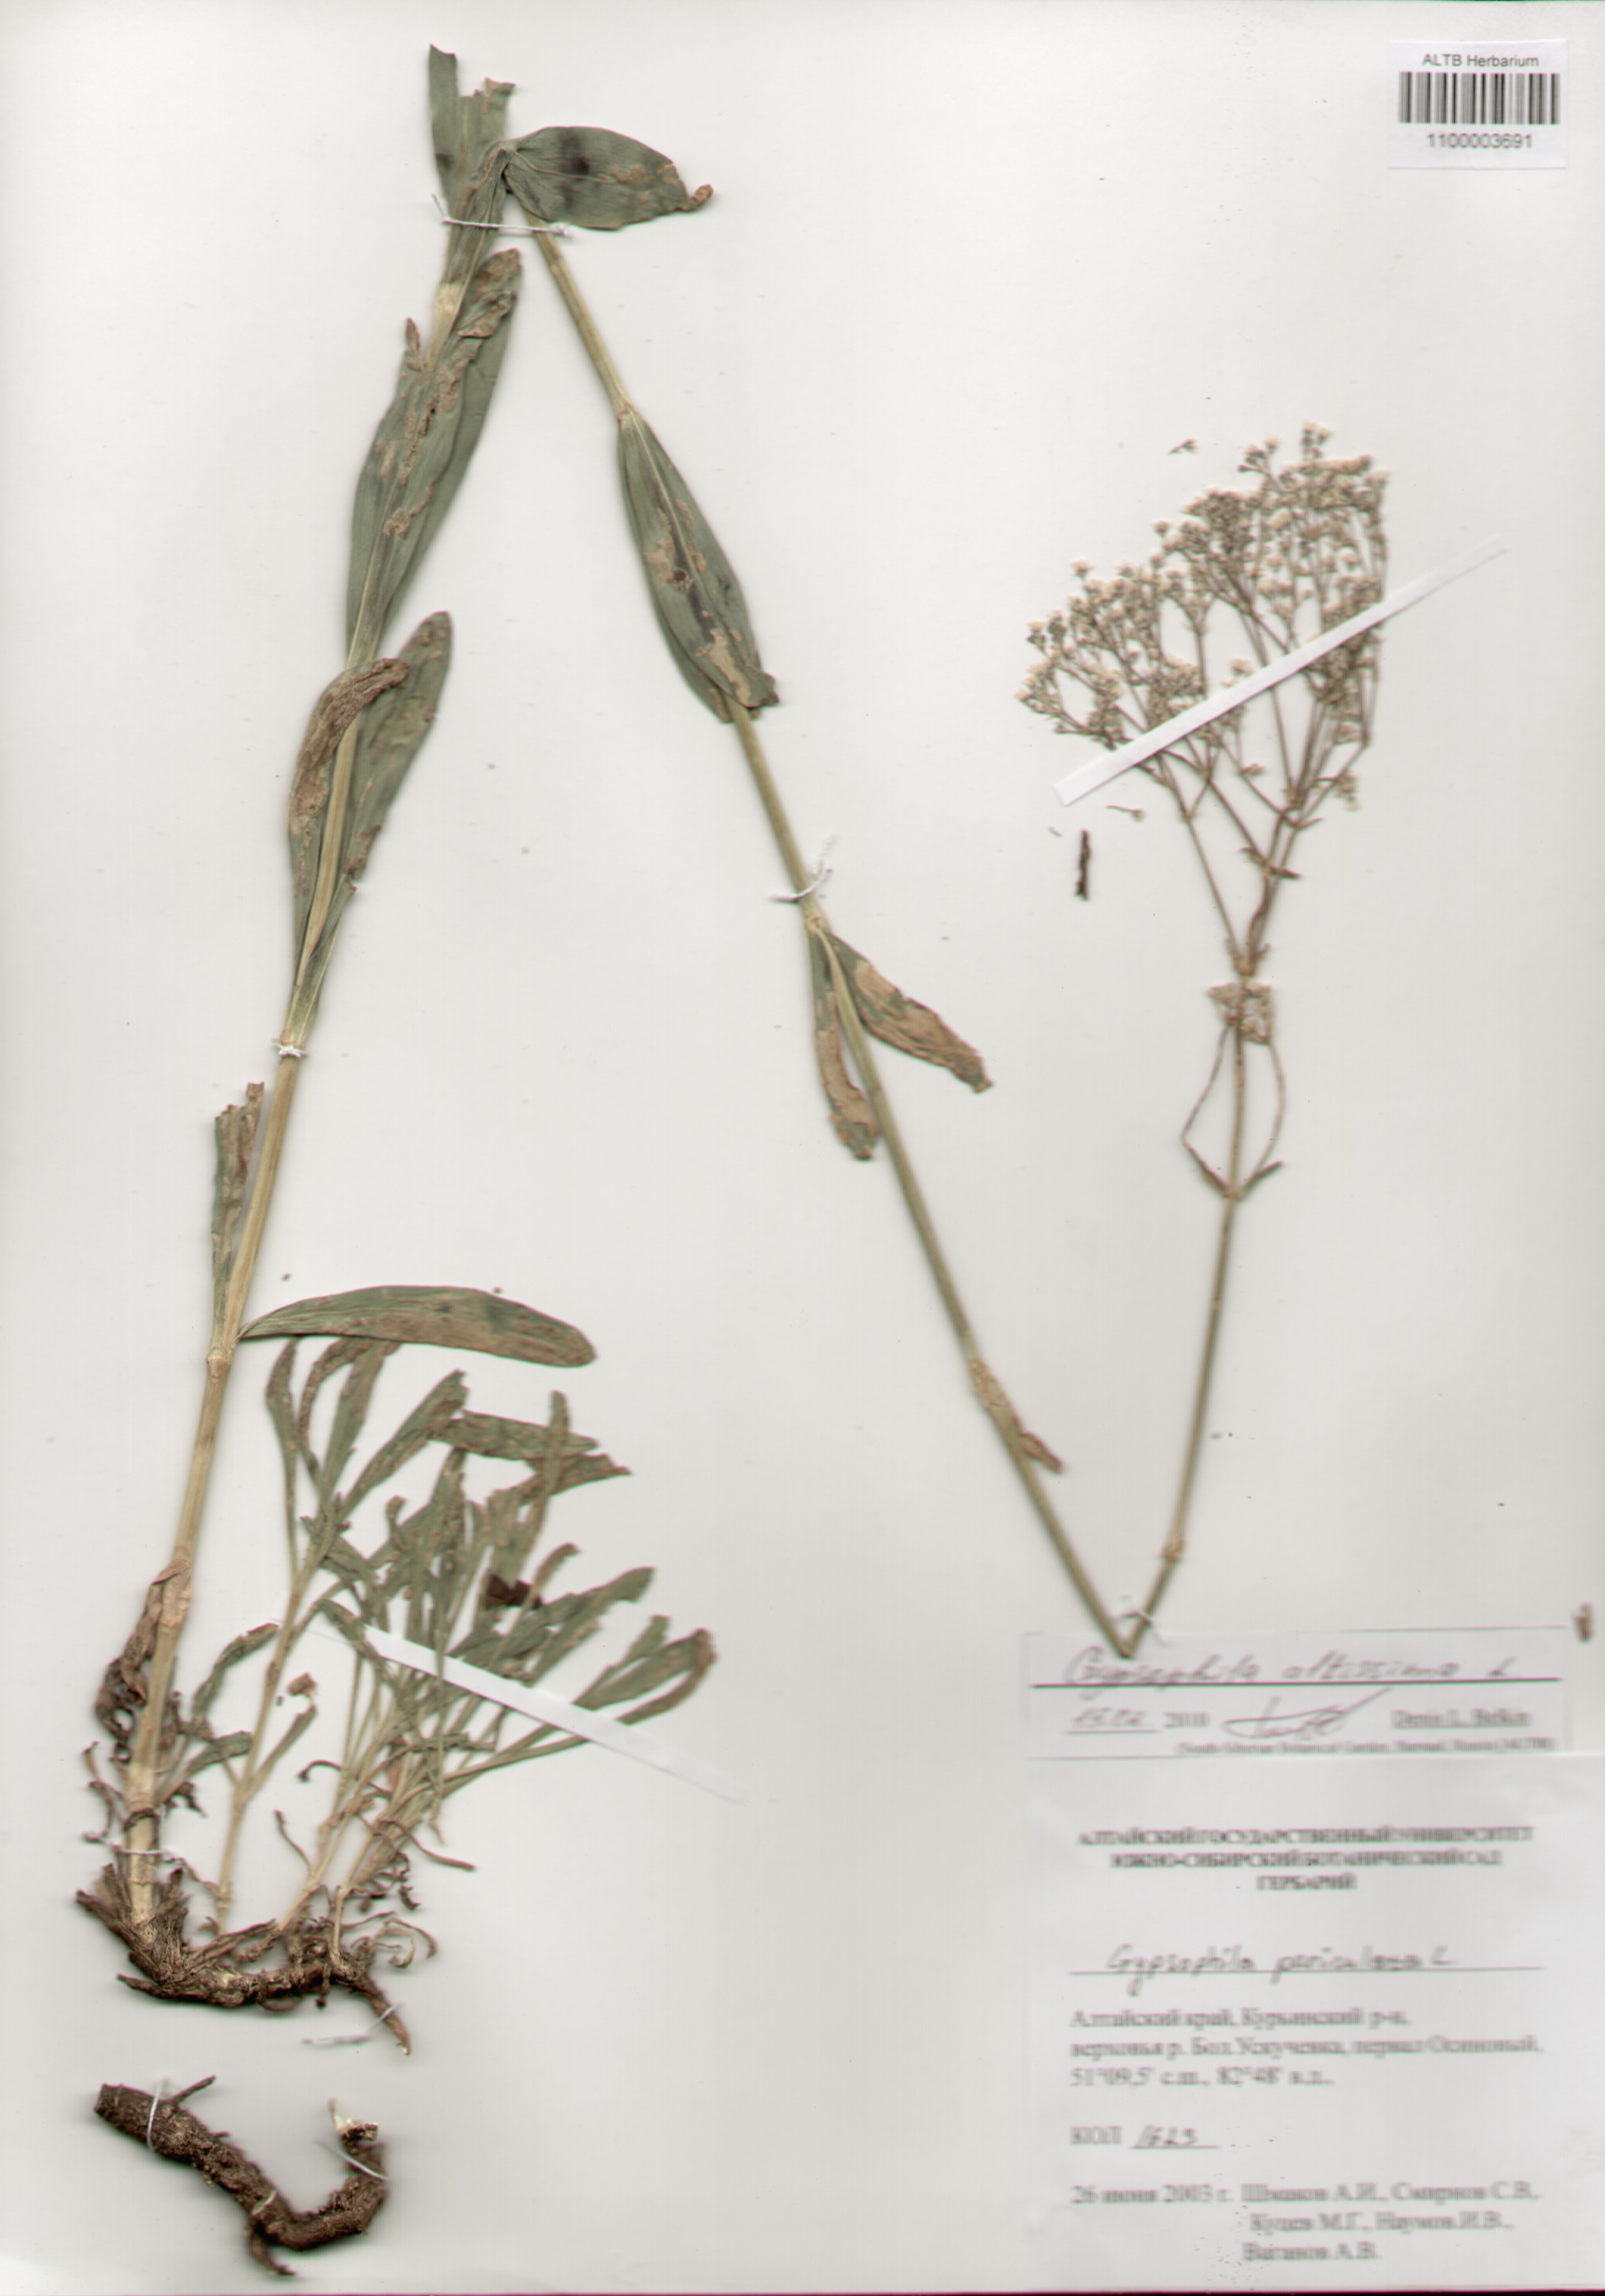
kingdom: Plantae
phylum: Tracheophyta
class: Magnoliopsida
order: Caryophyllales
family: Caryophyllaceae
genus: Gypsophila
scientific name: Gypsophila altissima
